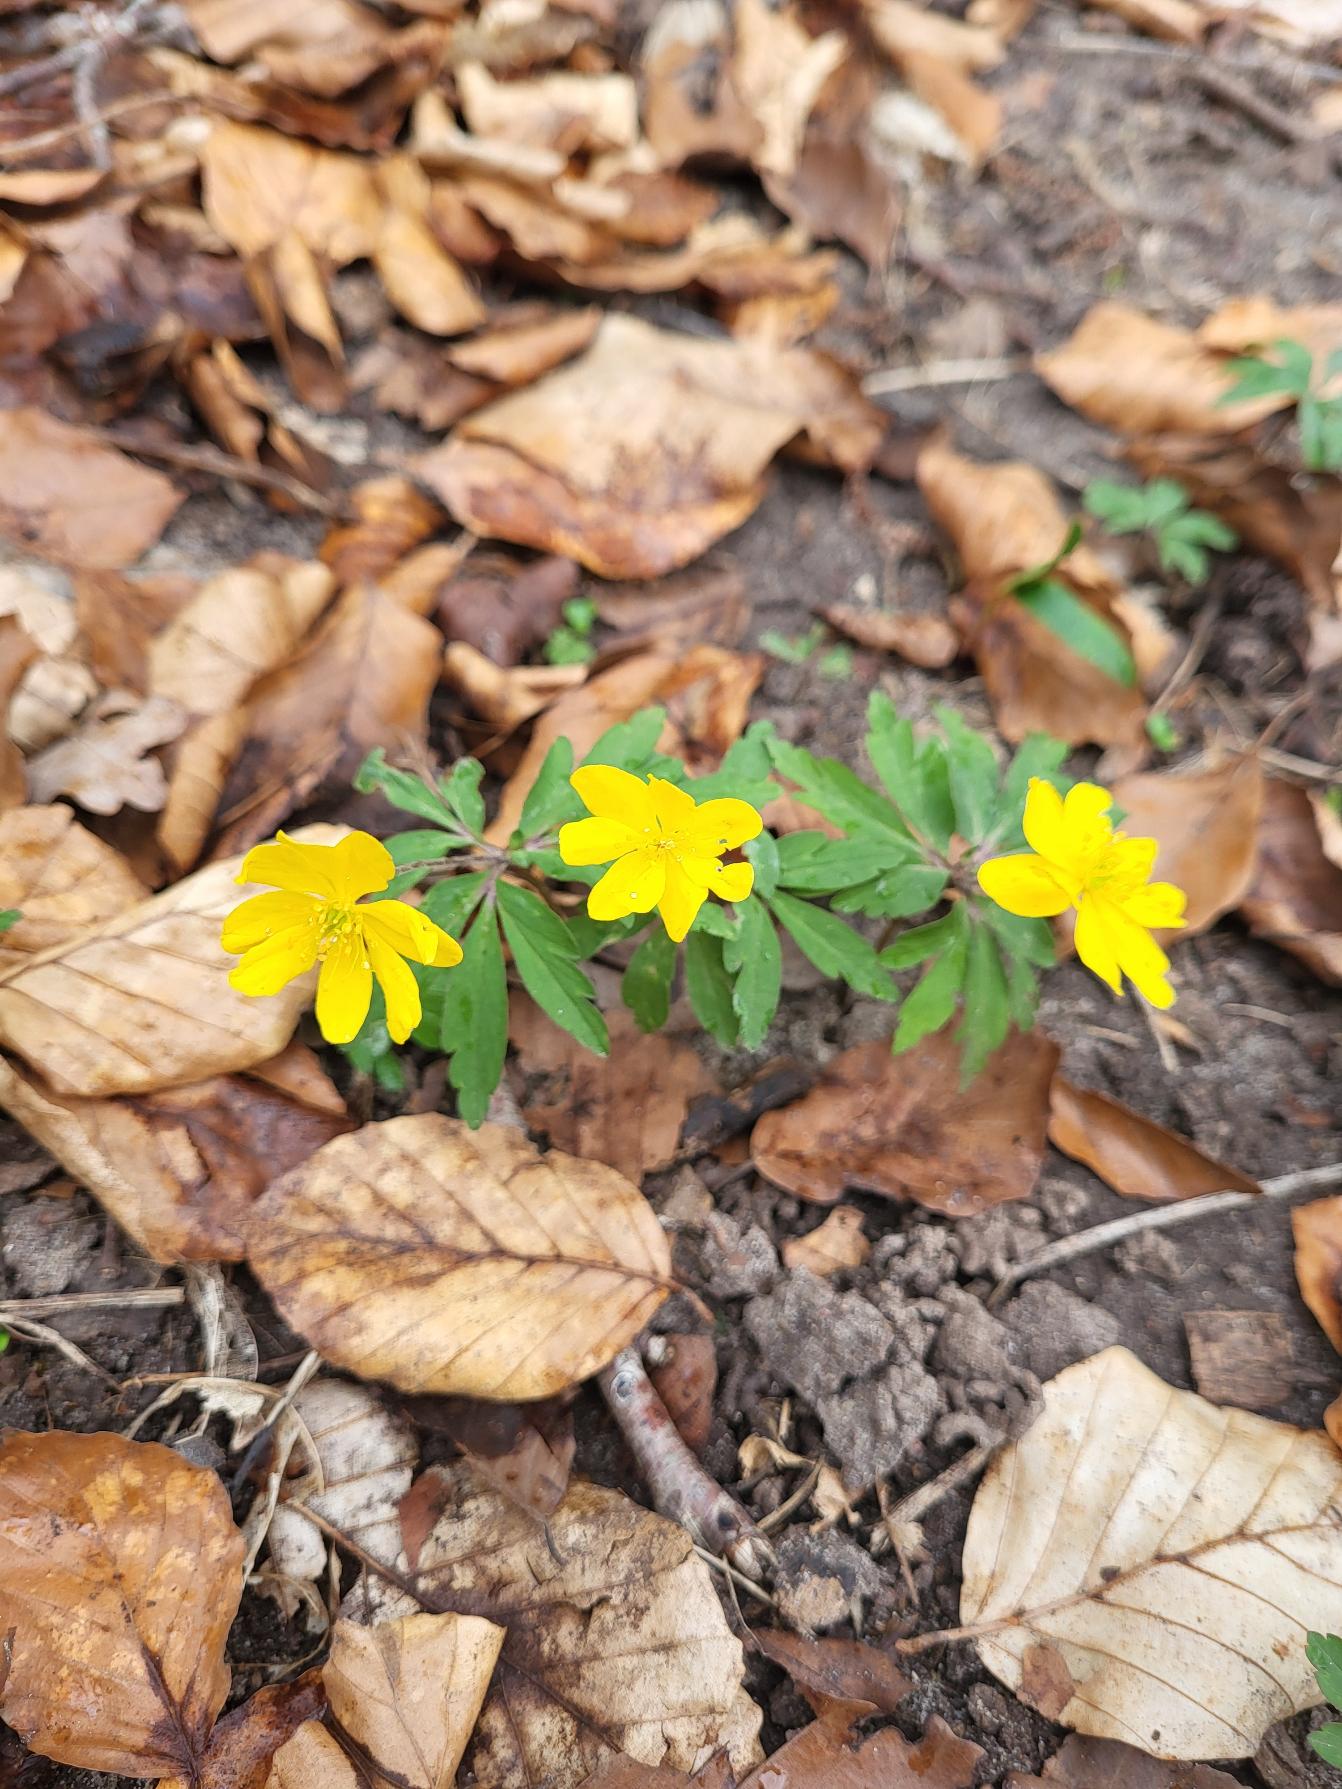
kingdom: Plantae
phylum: Tracheophyta
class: Magnoliopsida
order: Ranunculales
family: Ranunculaceae
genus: Anemone
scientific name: Anemone ranunculoides
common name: Gul anemone
